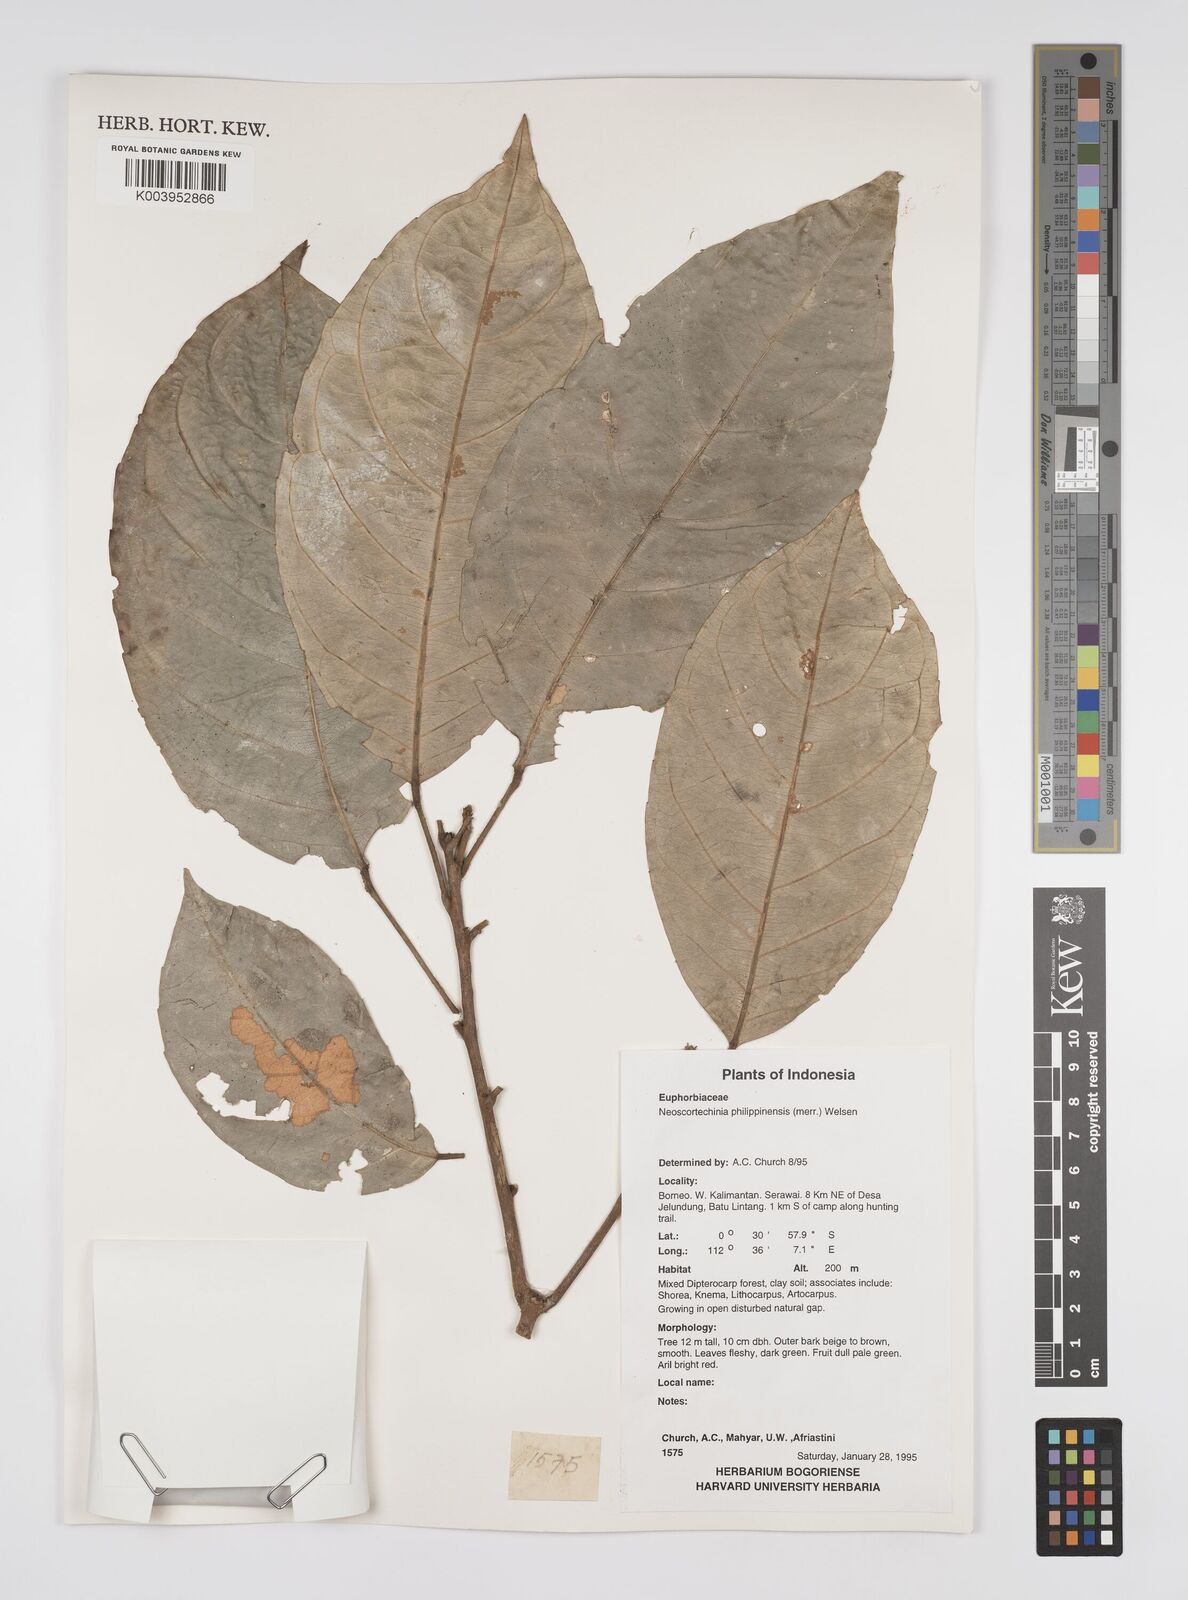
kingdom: Plantae
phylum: Tracheophyta
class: Magnoliopsida
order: Malpighiales
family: Euphorbiaceae
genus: Neoscortechinia
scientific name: Neoscortechinia philippinensis
